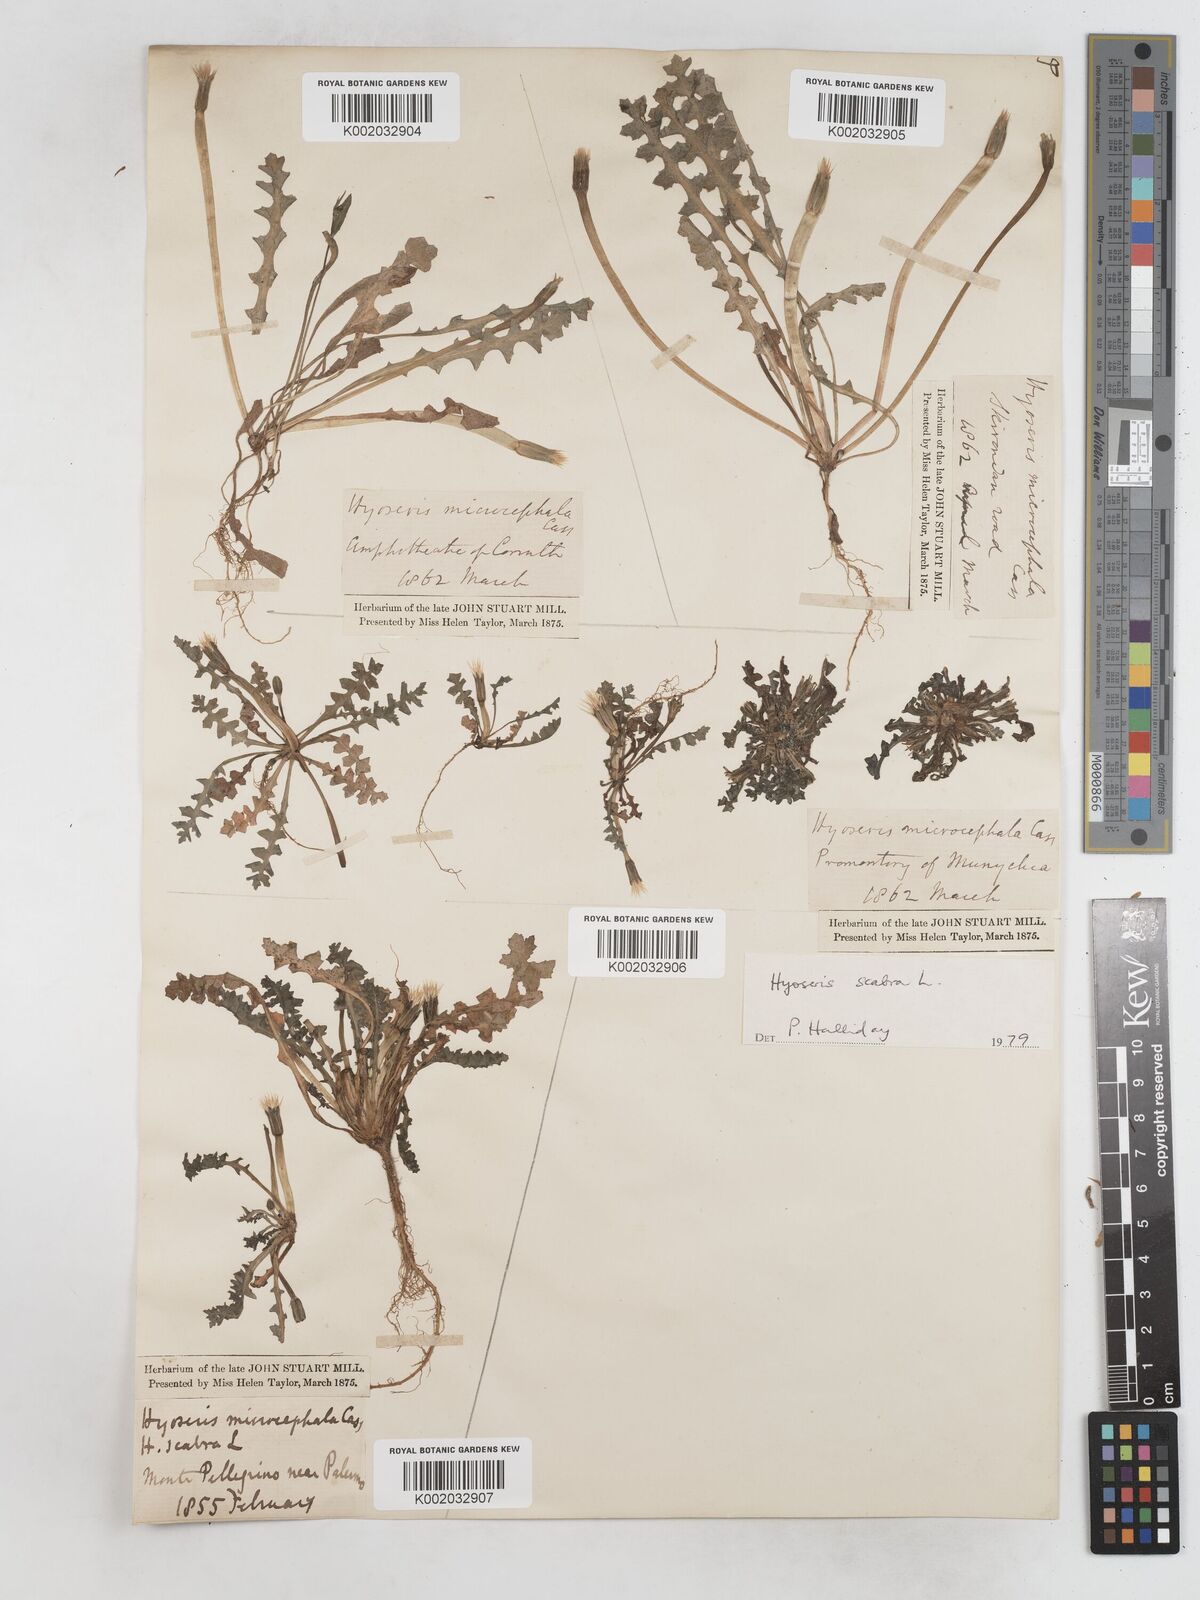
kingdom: Plantae
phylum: Tracheophyta
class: Magnoliopsida
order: Asterales
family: Asteraceae
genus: Hyoseris
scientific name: Hyoseris scabra
